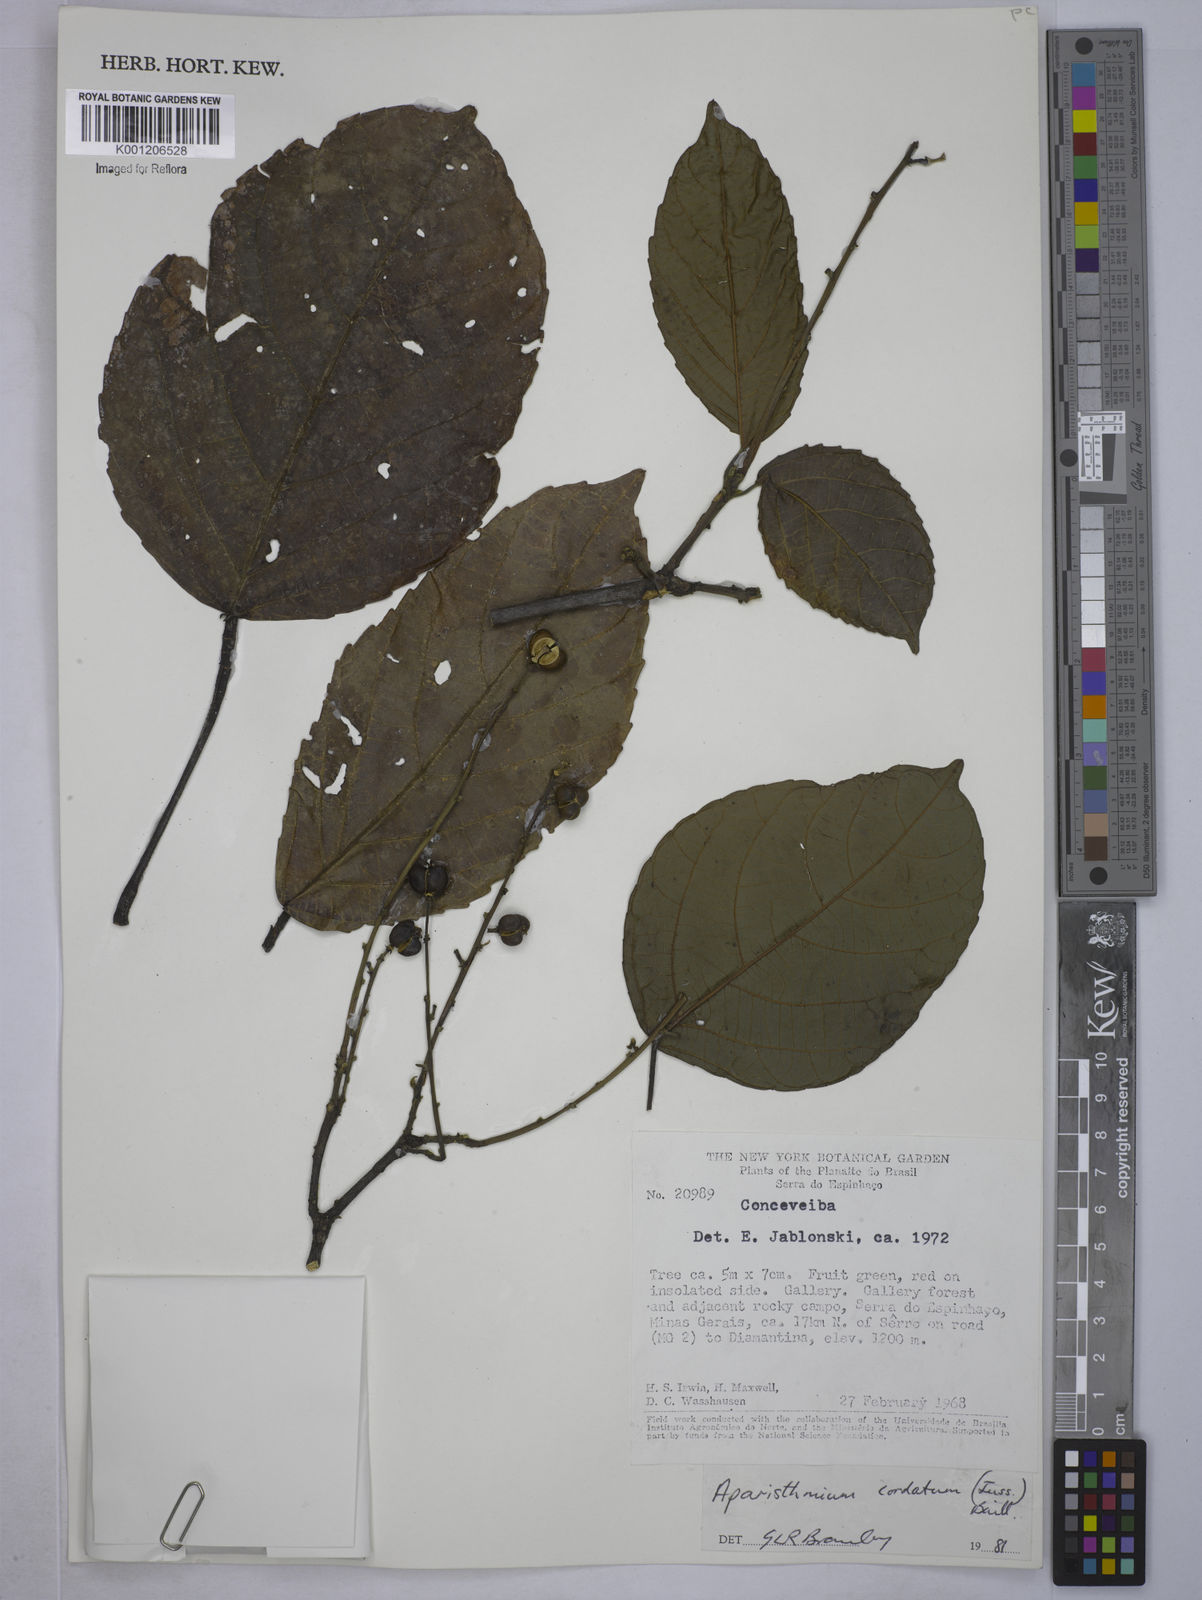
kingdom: Plantae
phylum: Tracheophyta
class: Magnoliopsida
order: Malpighiales
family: Euphorbiaceae
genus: Aparisthmium
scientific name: Aparisthmium cordatum
